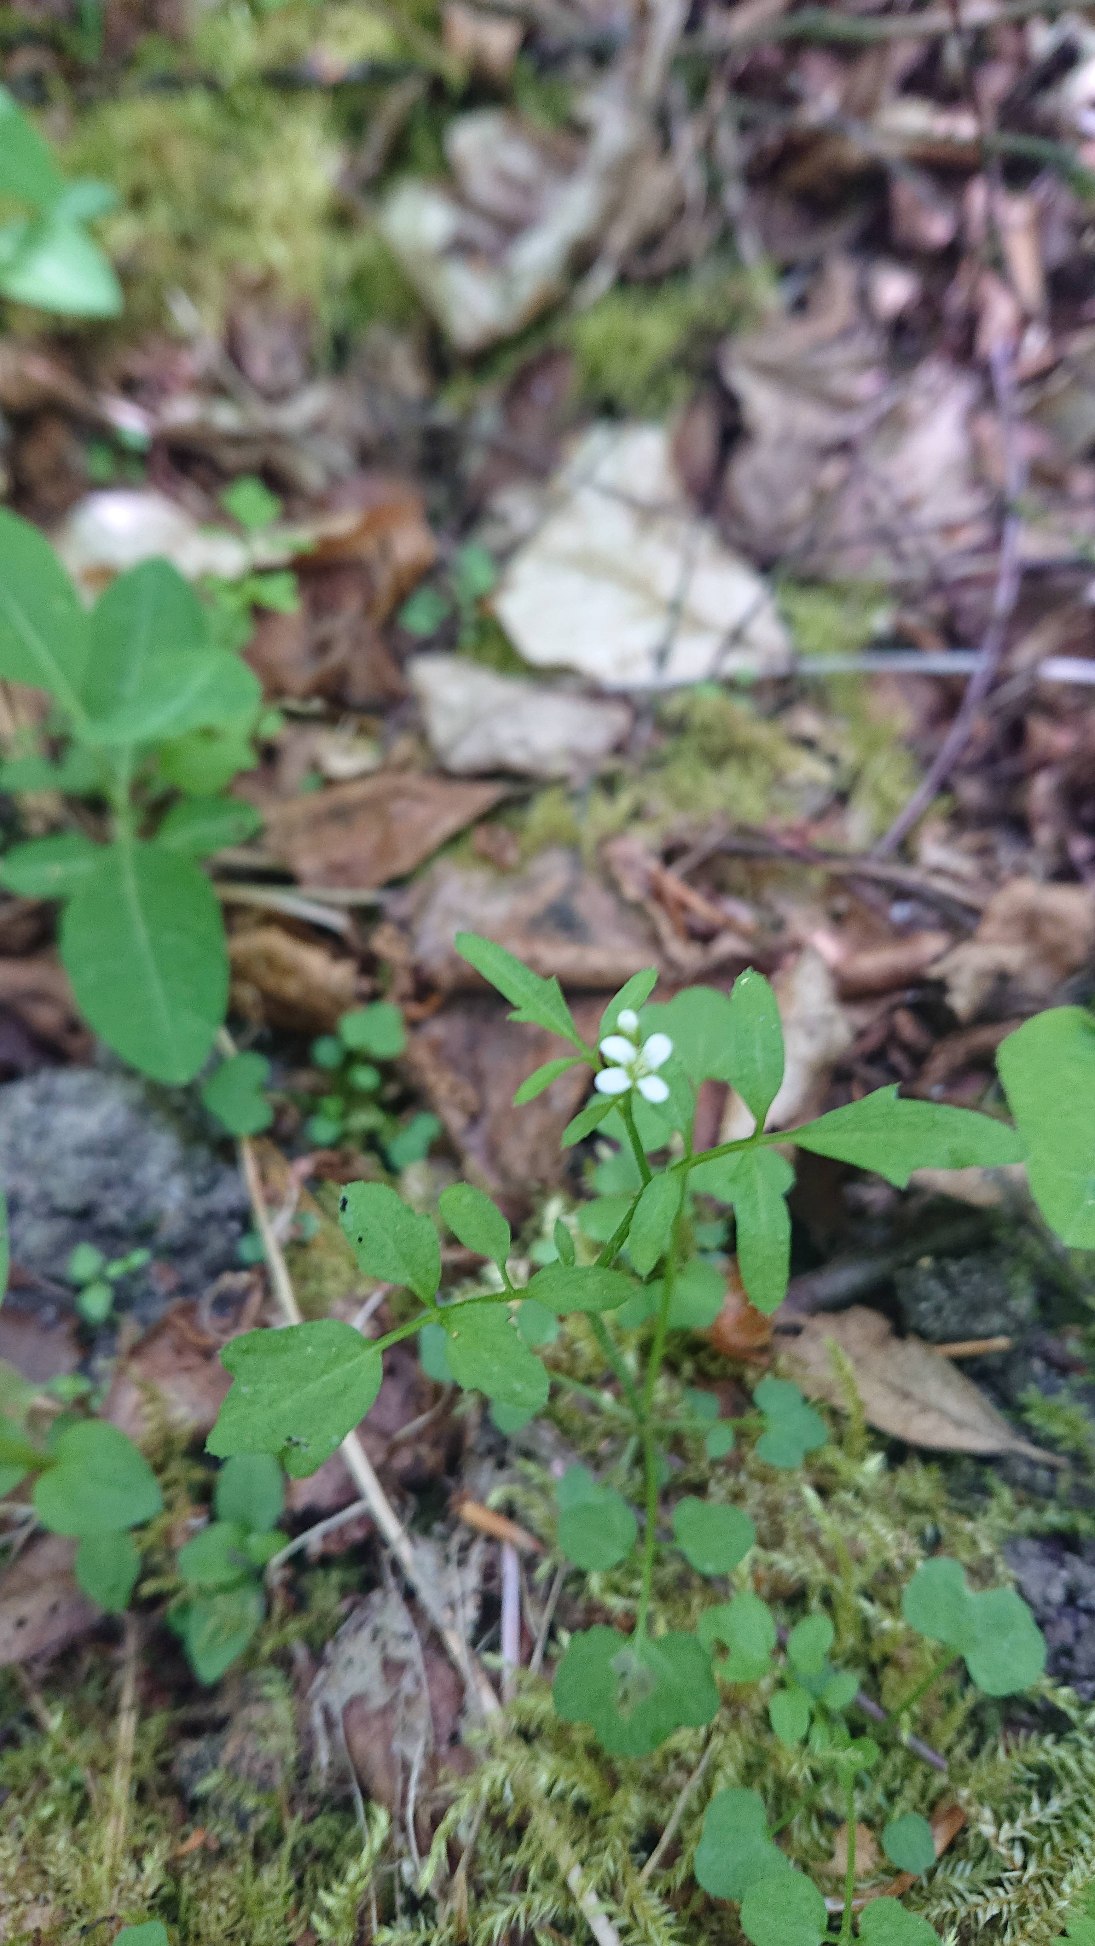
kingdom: Plantae
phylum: Tracheophyta
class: Magnoliopsida
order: Brassicales
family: Brassicaceae
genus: Cardamine
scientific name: Cardamine flexuosa
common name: Skov-springklap
